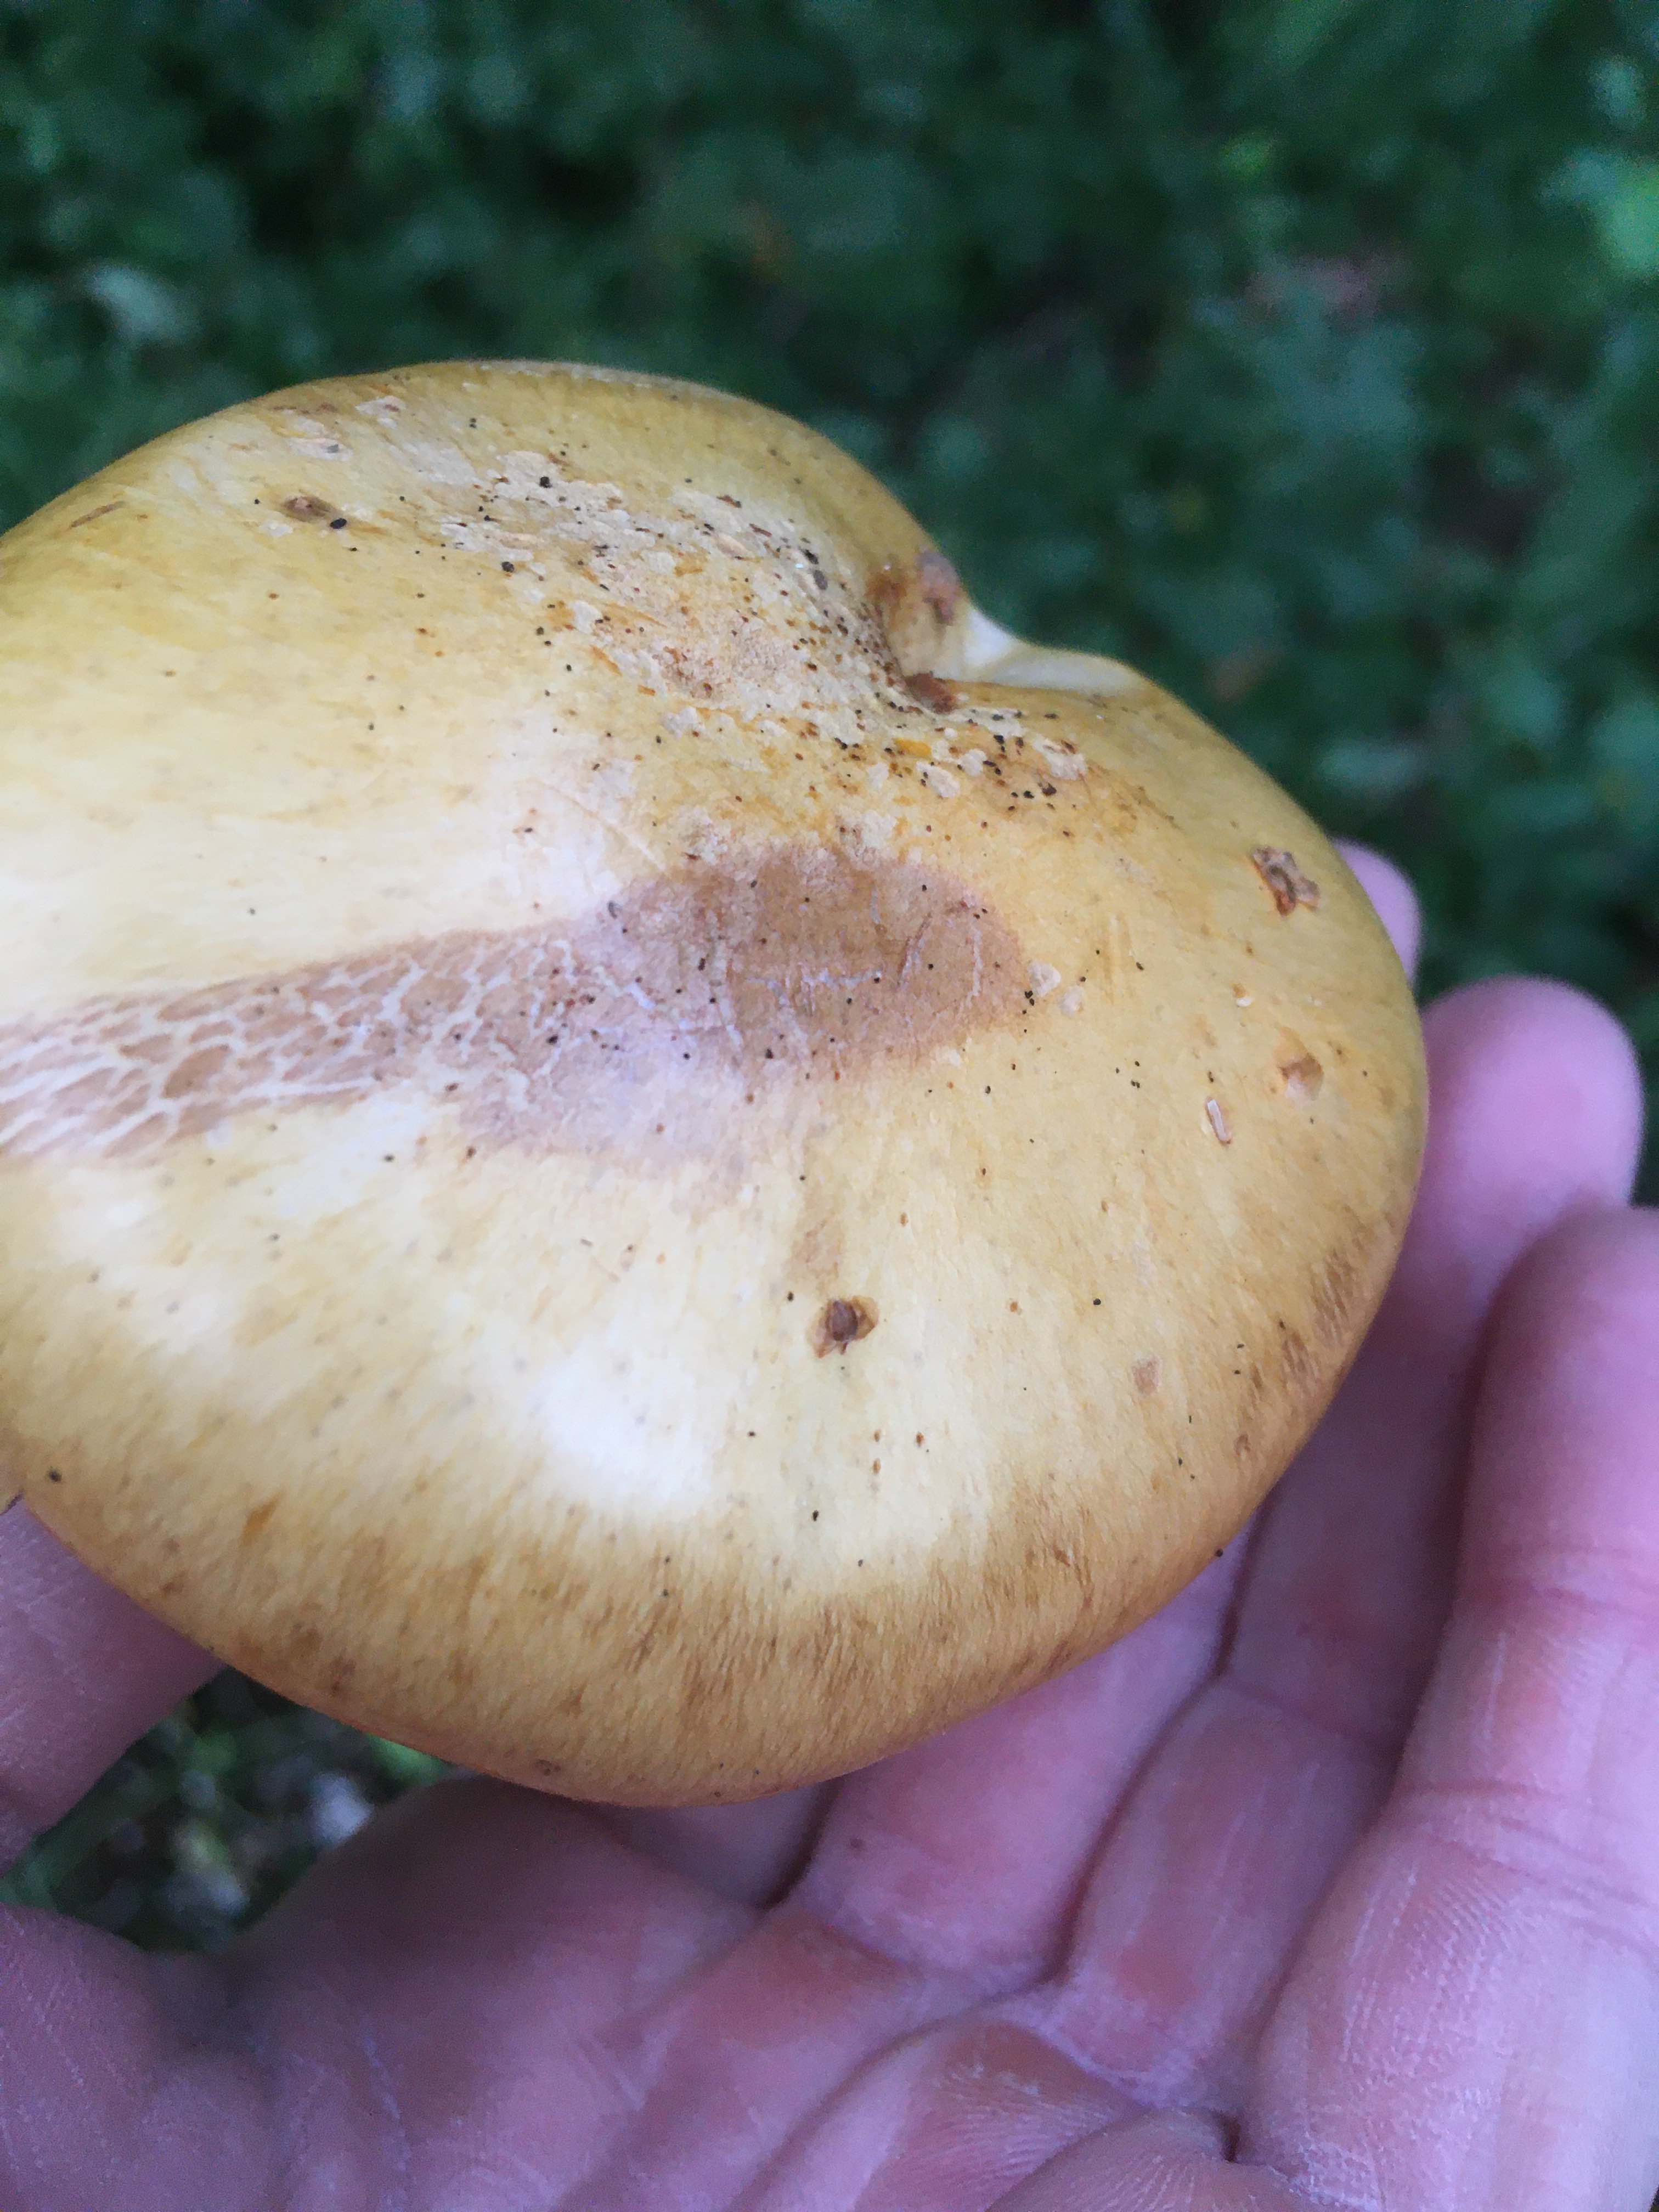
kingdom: Fungi
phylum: Basidiomycota
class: Agaricomycetes
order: Agaricales
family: Cortinariaceae
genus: Cortinarius
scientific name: Cortinarius
